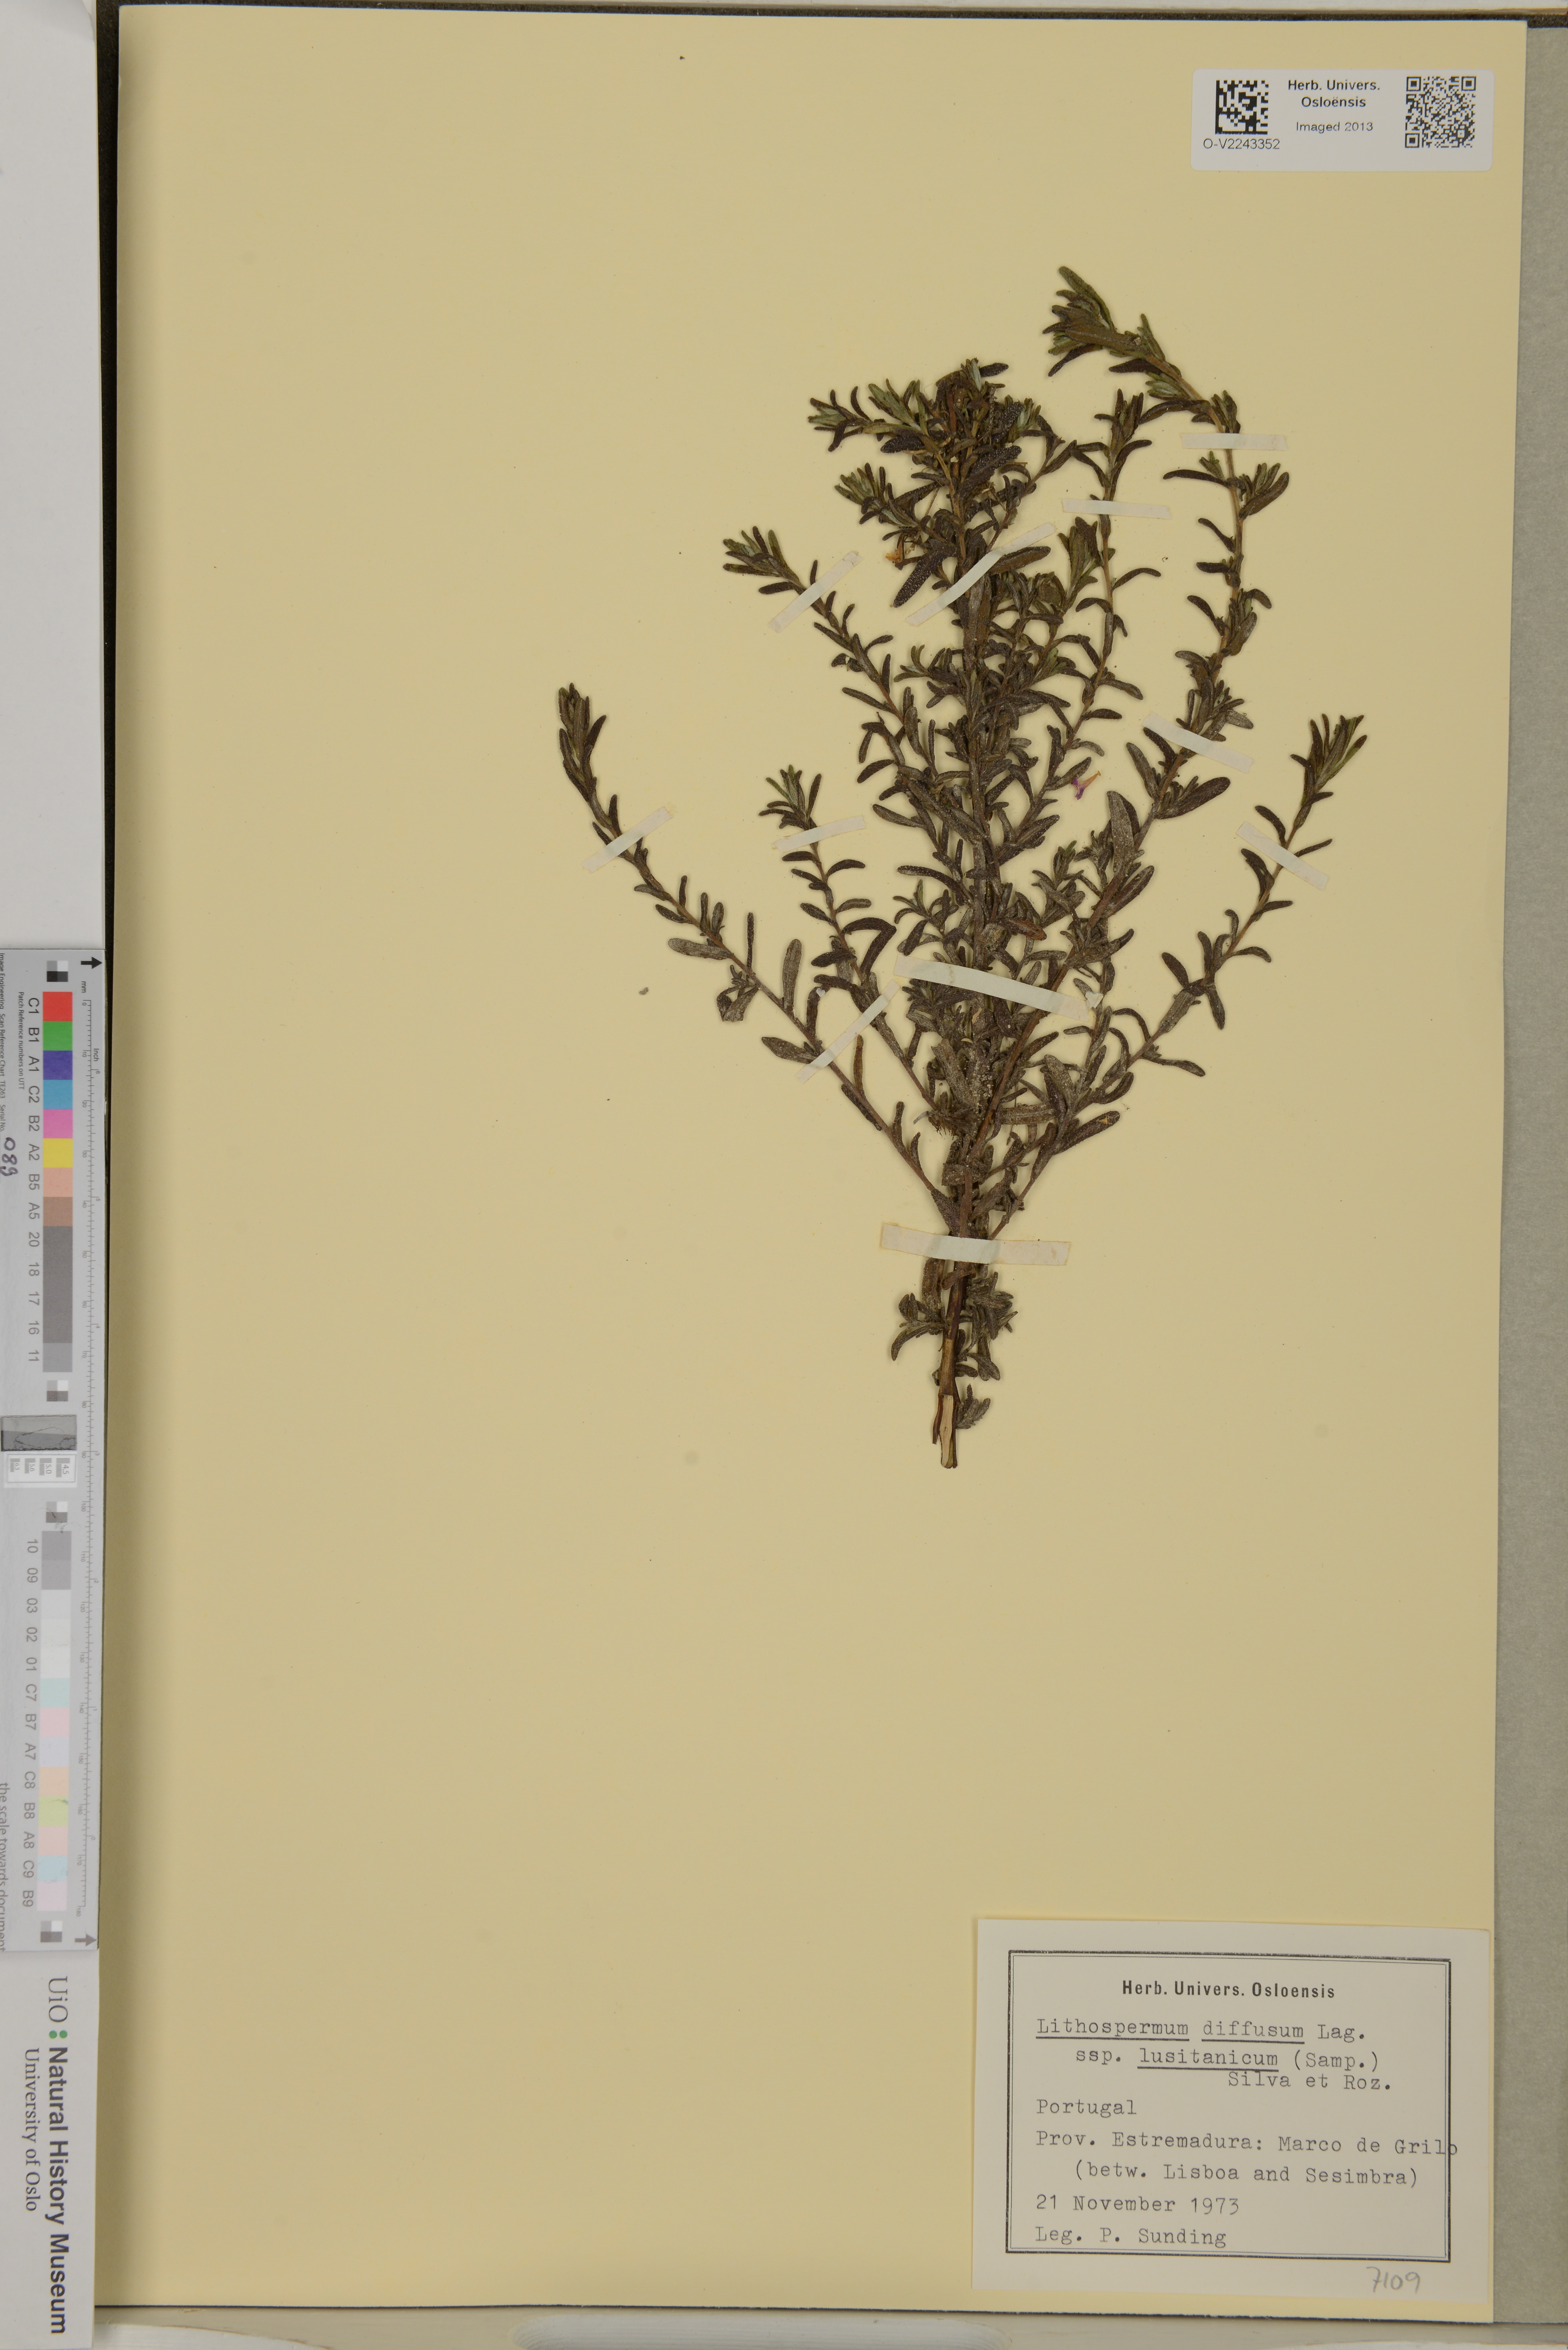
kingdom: Plantae
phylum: Tracheophyta
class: Magnoliopsida
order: Boraginales
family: Boraginaceae
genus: Glandora
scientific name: Glandora diffusa
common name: Shrubby-gromwell
